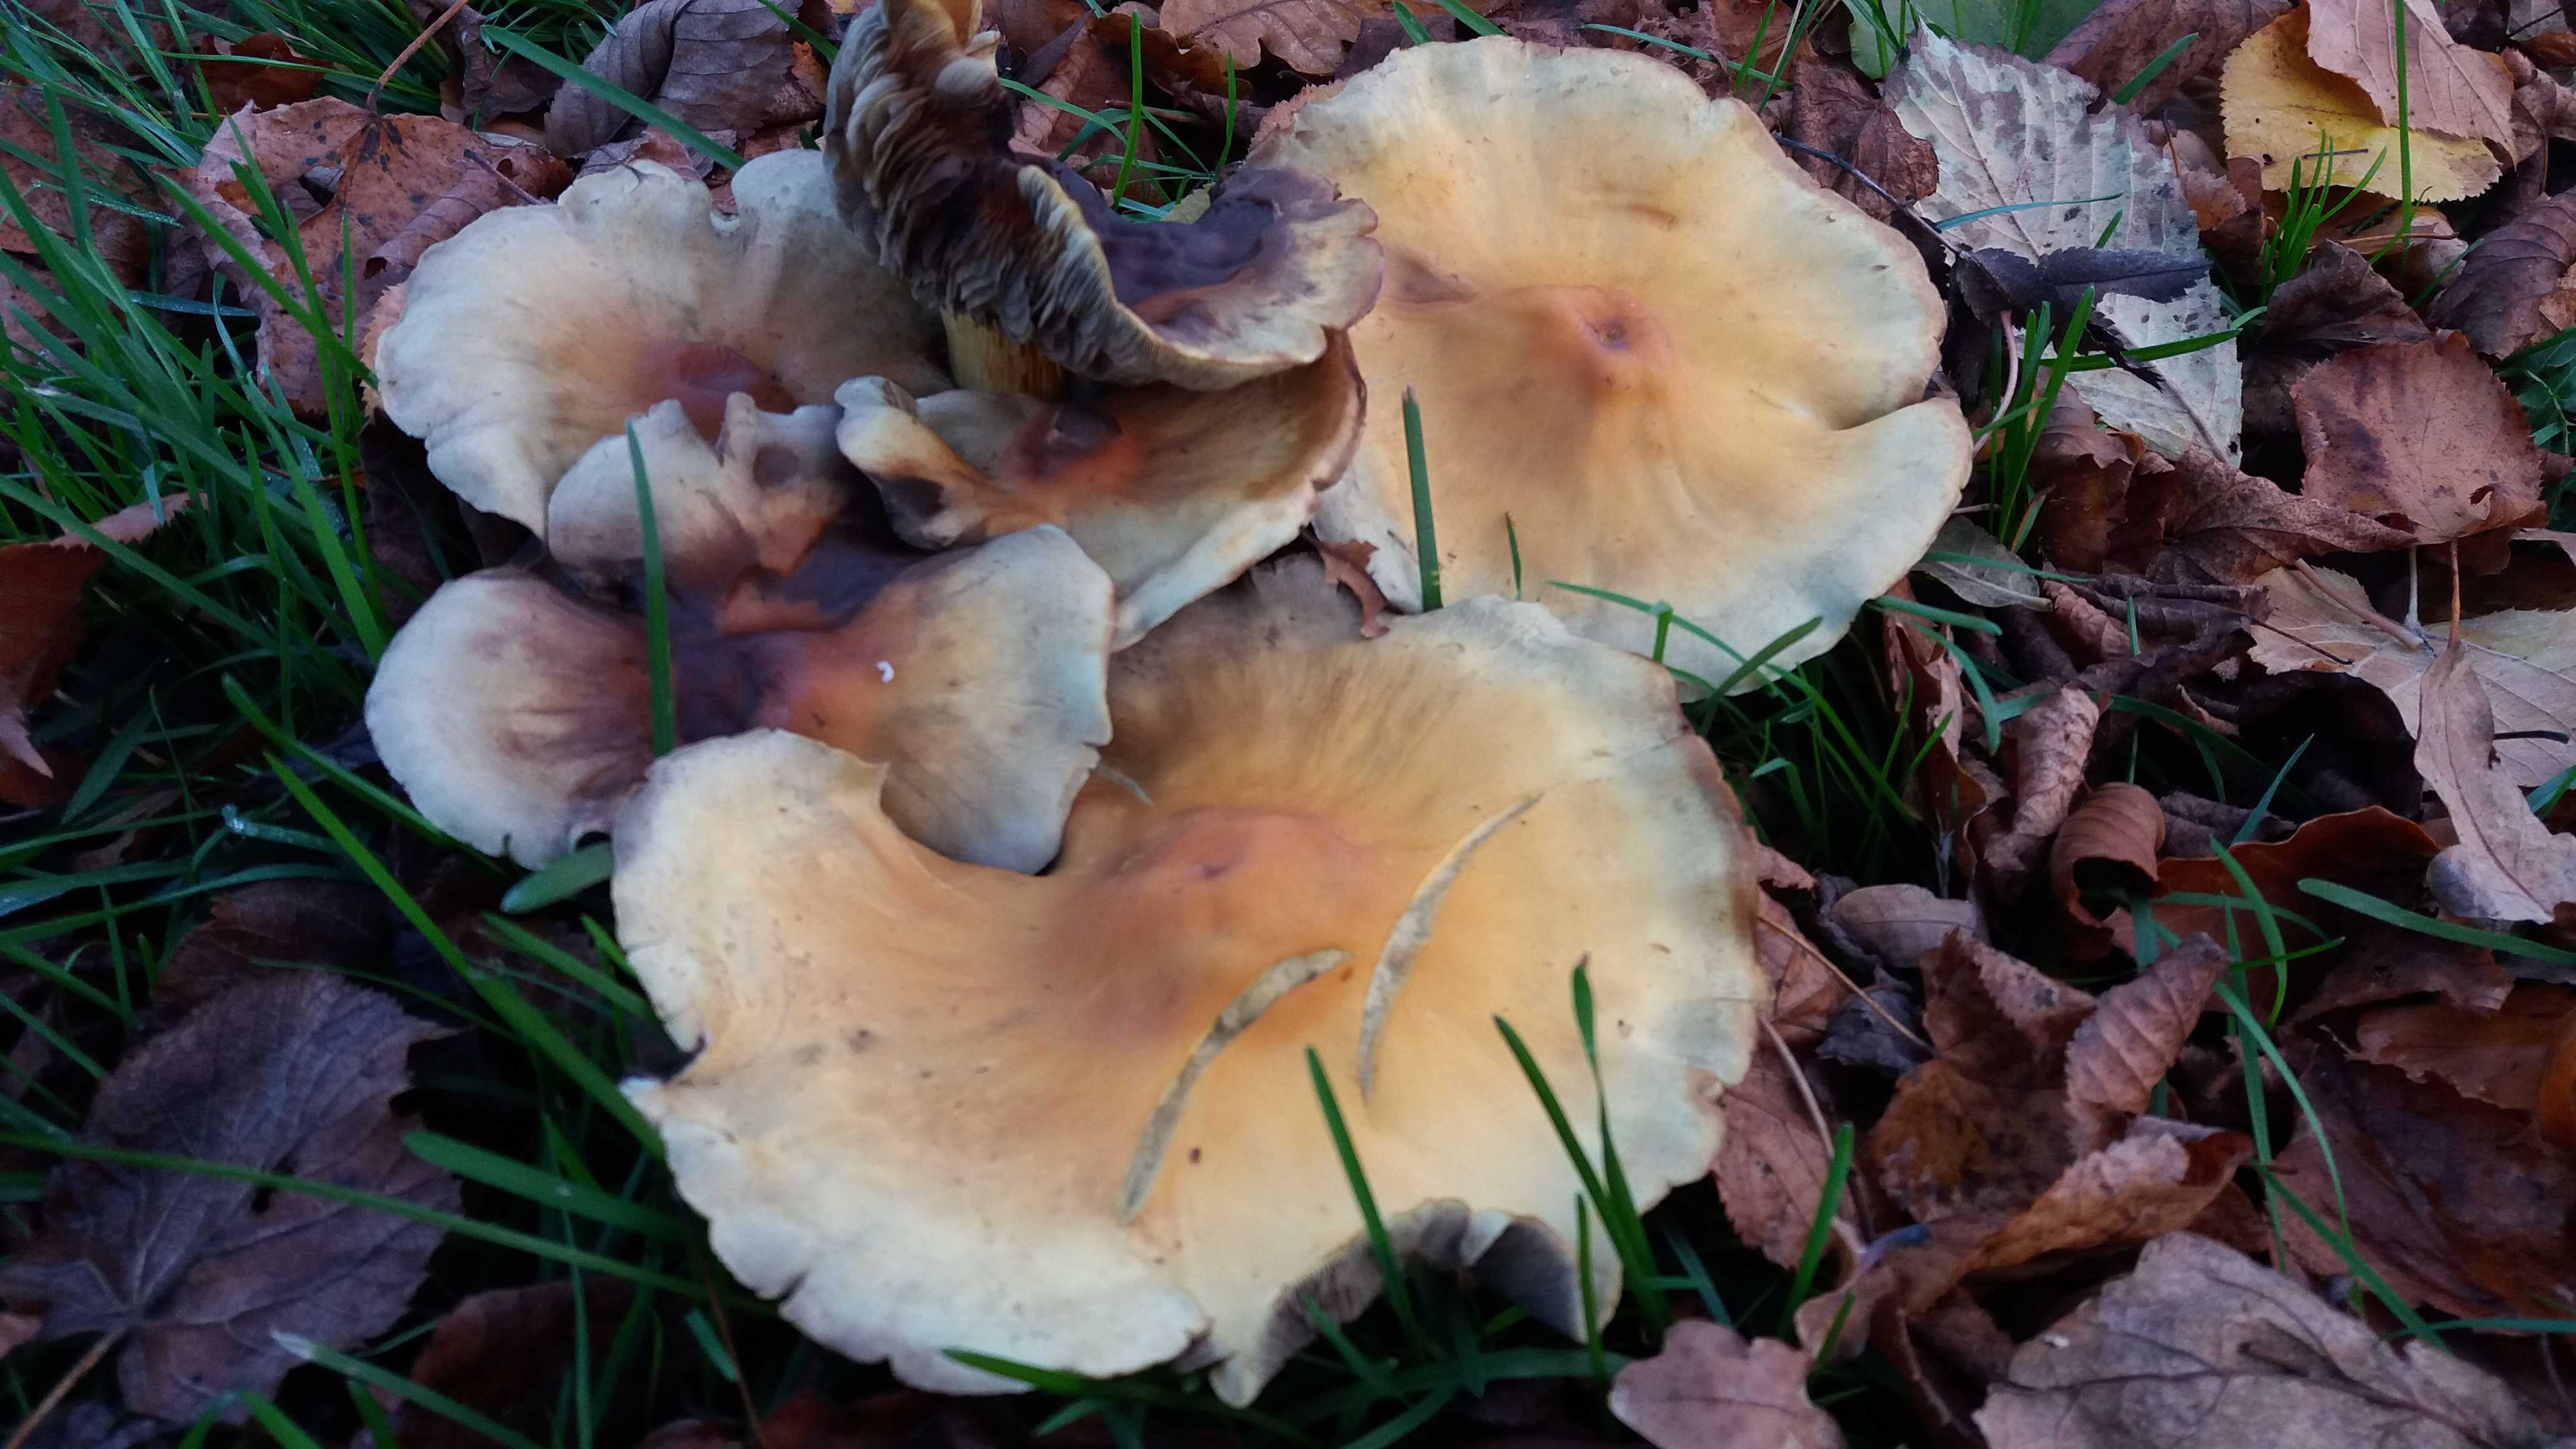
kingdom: Fungi
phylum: Basidiomycota
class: Agaricomycetes
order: Agaricales
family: Strophariaceae
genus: Hypholoma
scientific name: Hypholoma fasciculare
